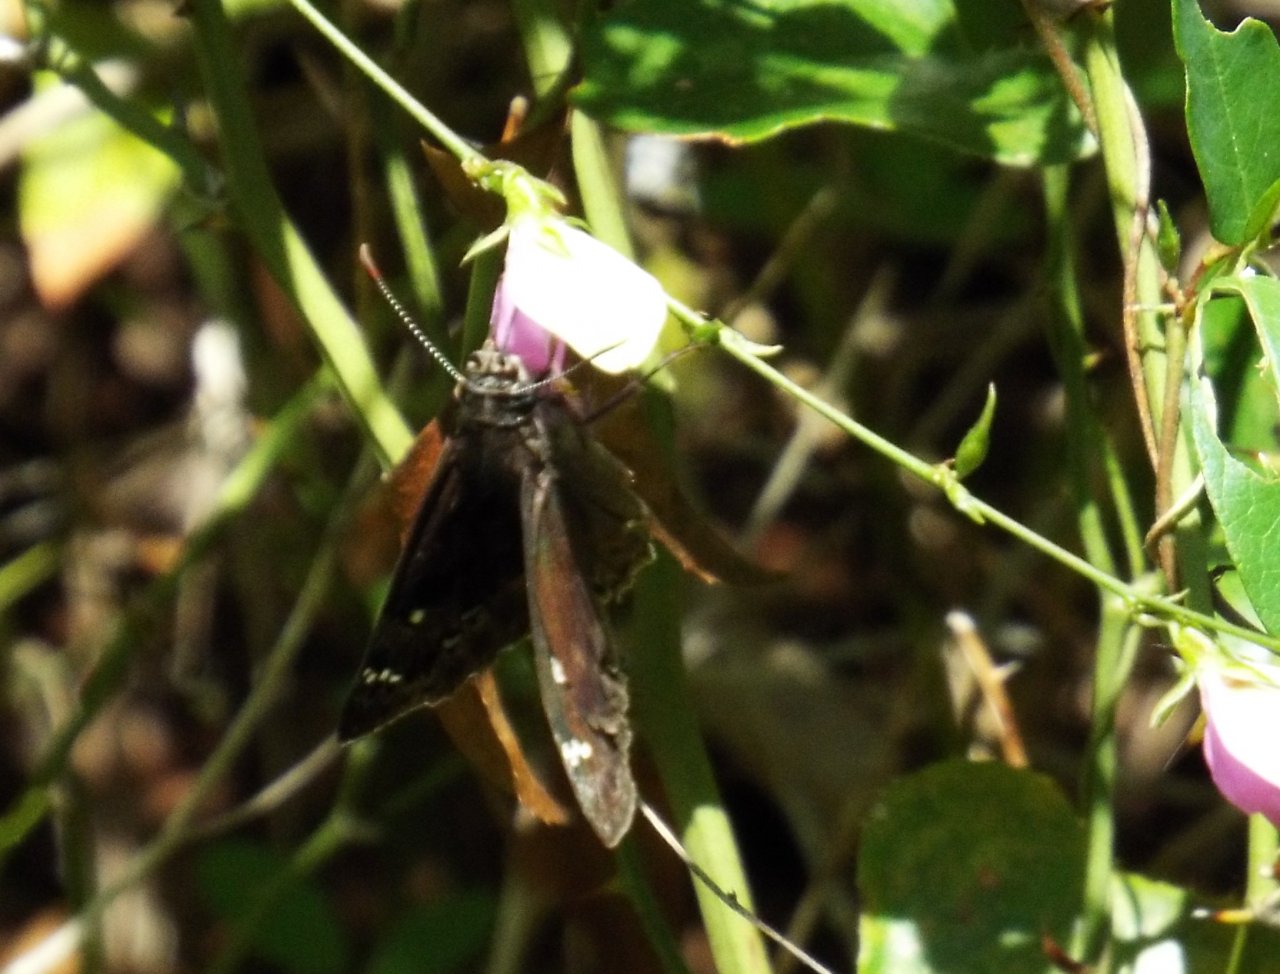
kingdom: Animalia
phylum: Arthropoda
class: Insecta
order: Lepidoptera
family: Hesperiidae
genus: Gesta
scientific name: Gesta
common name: Horace's Duskywing
